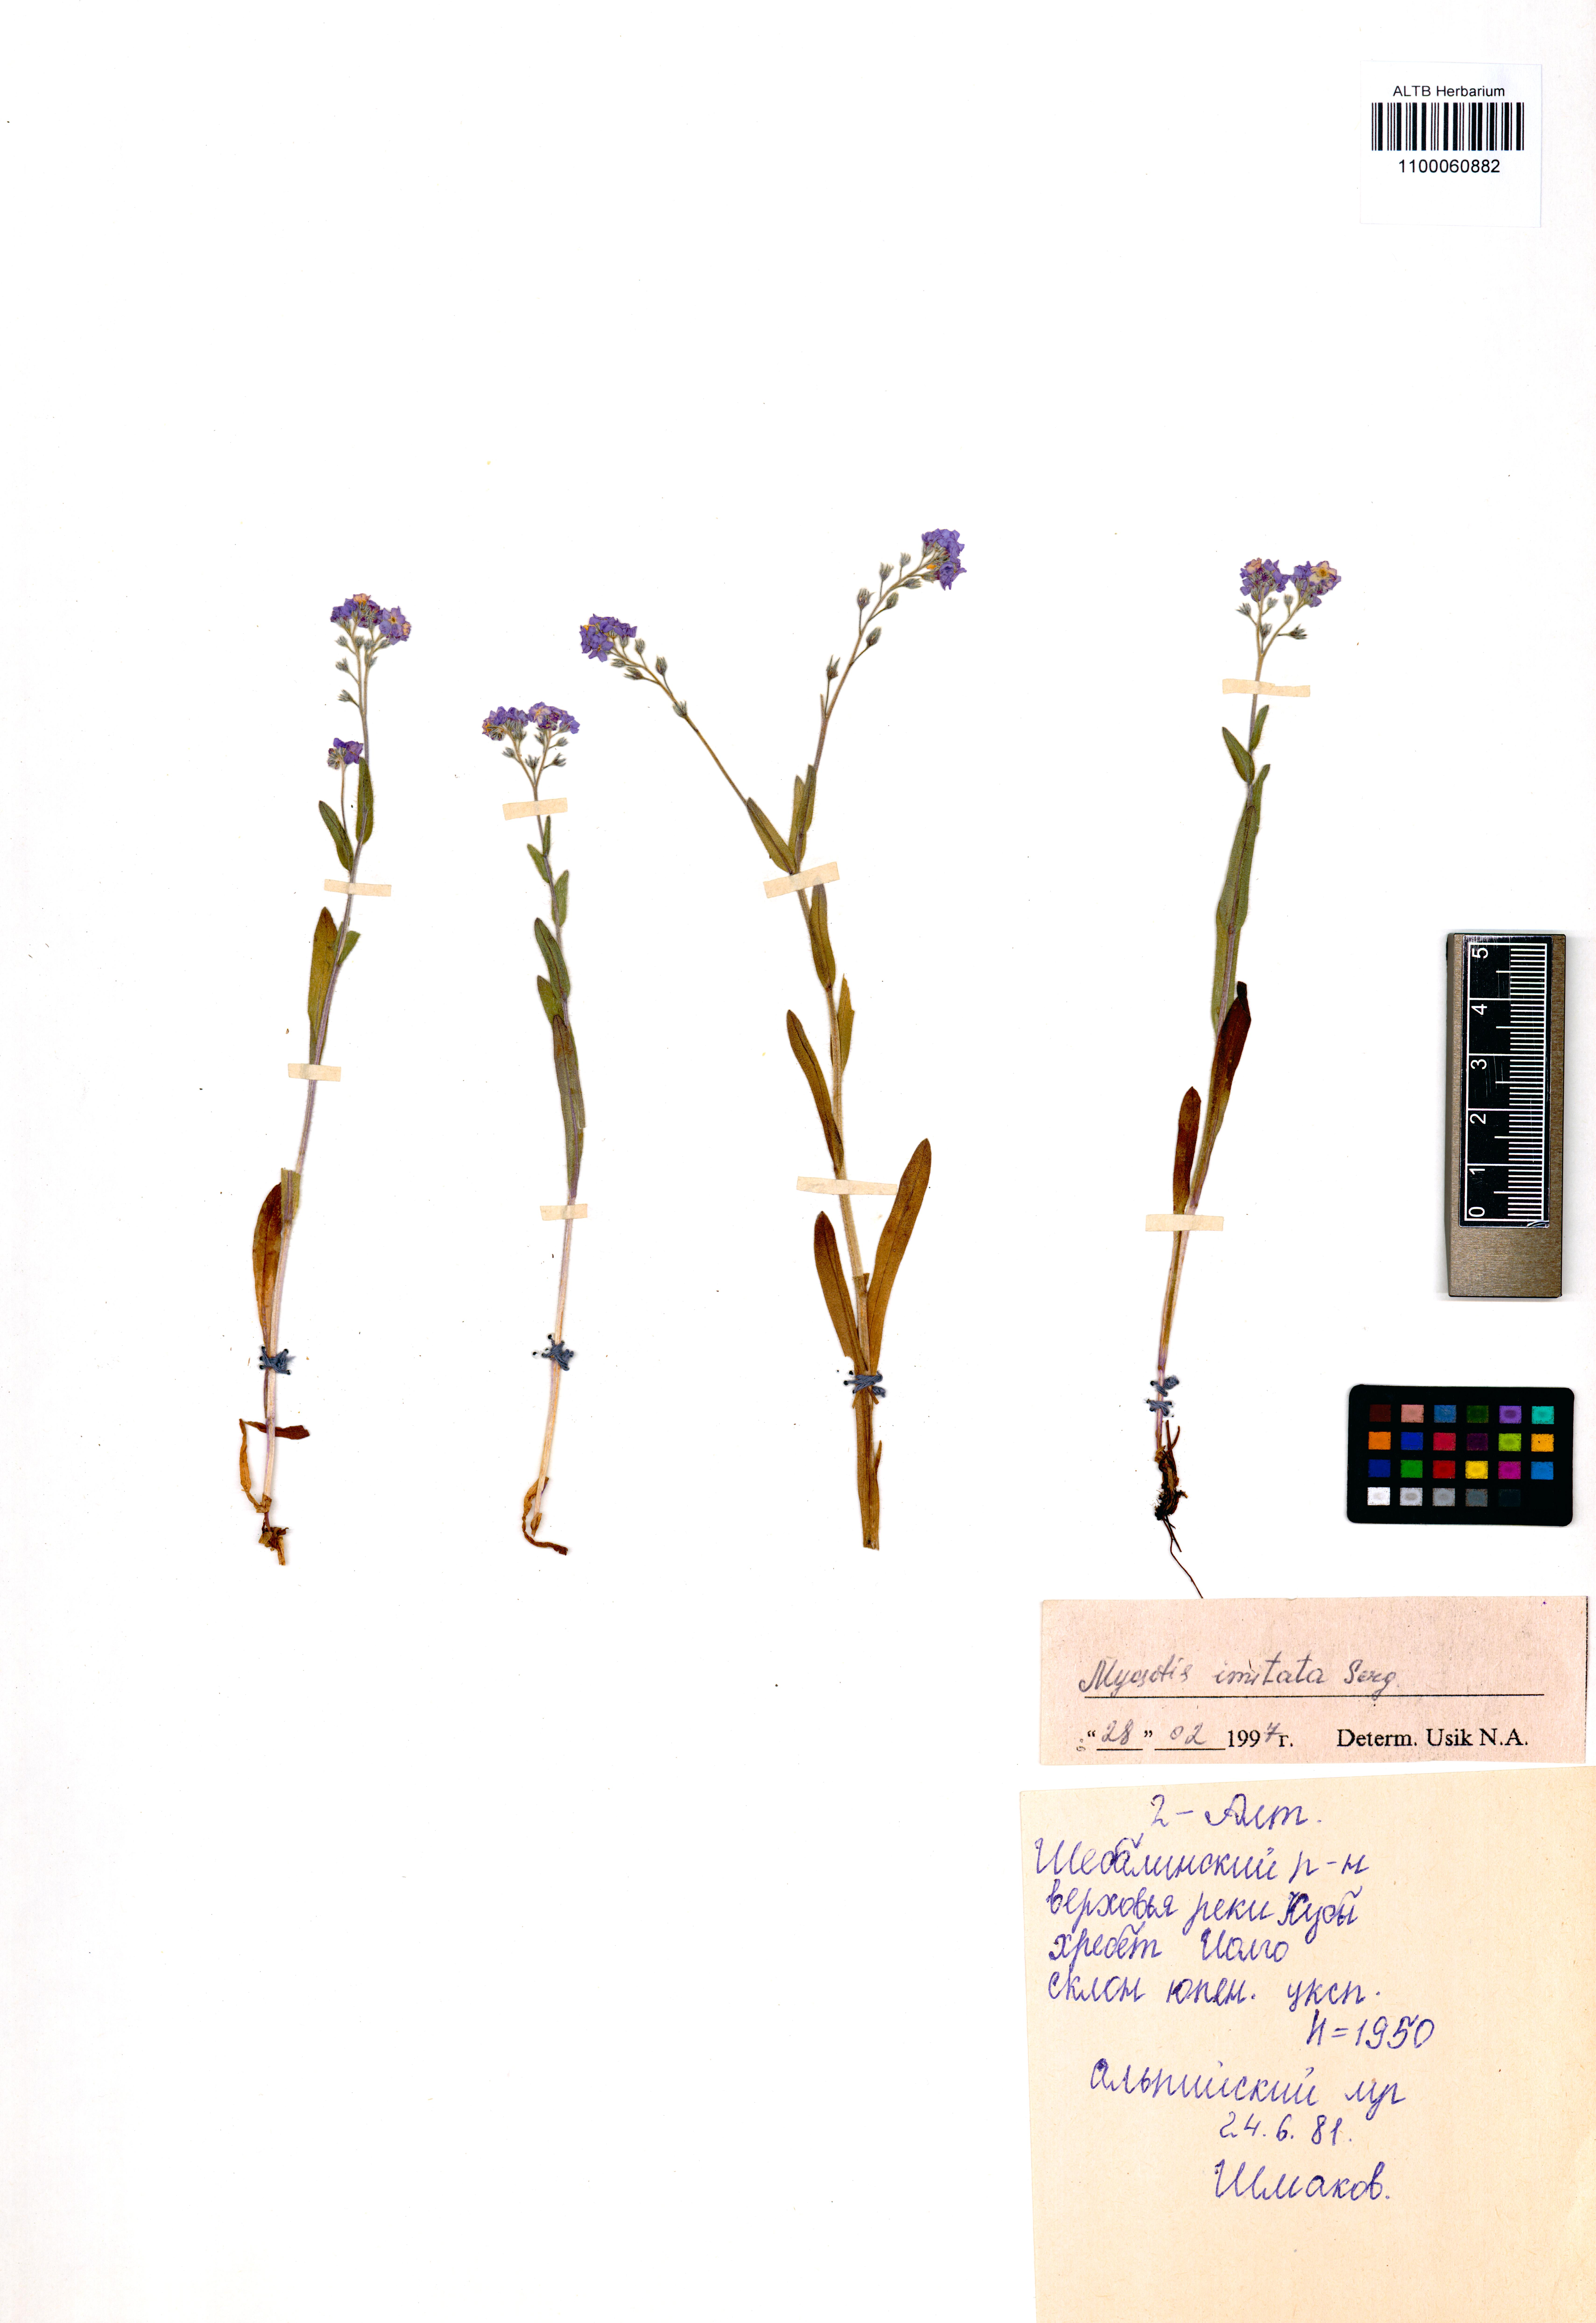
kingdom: Plantae
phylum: Tracheophyta
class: Magnoliopsida
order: Boraginales
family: Boraginaceae
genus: Myosotis
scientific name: Myosotis imitata
